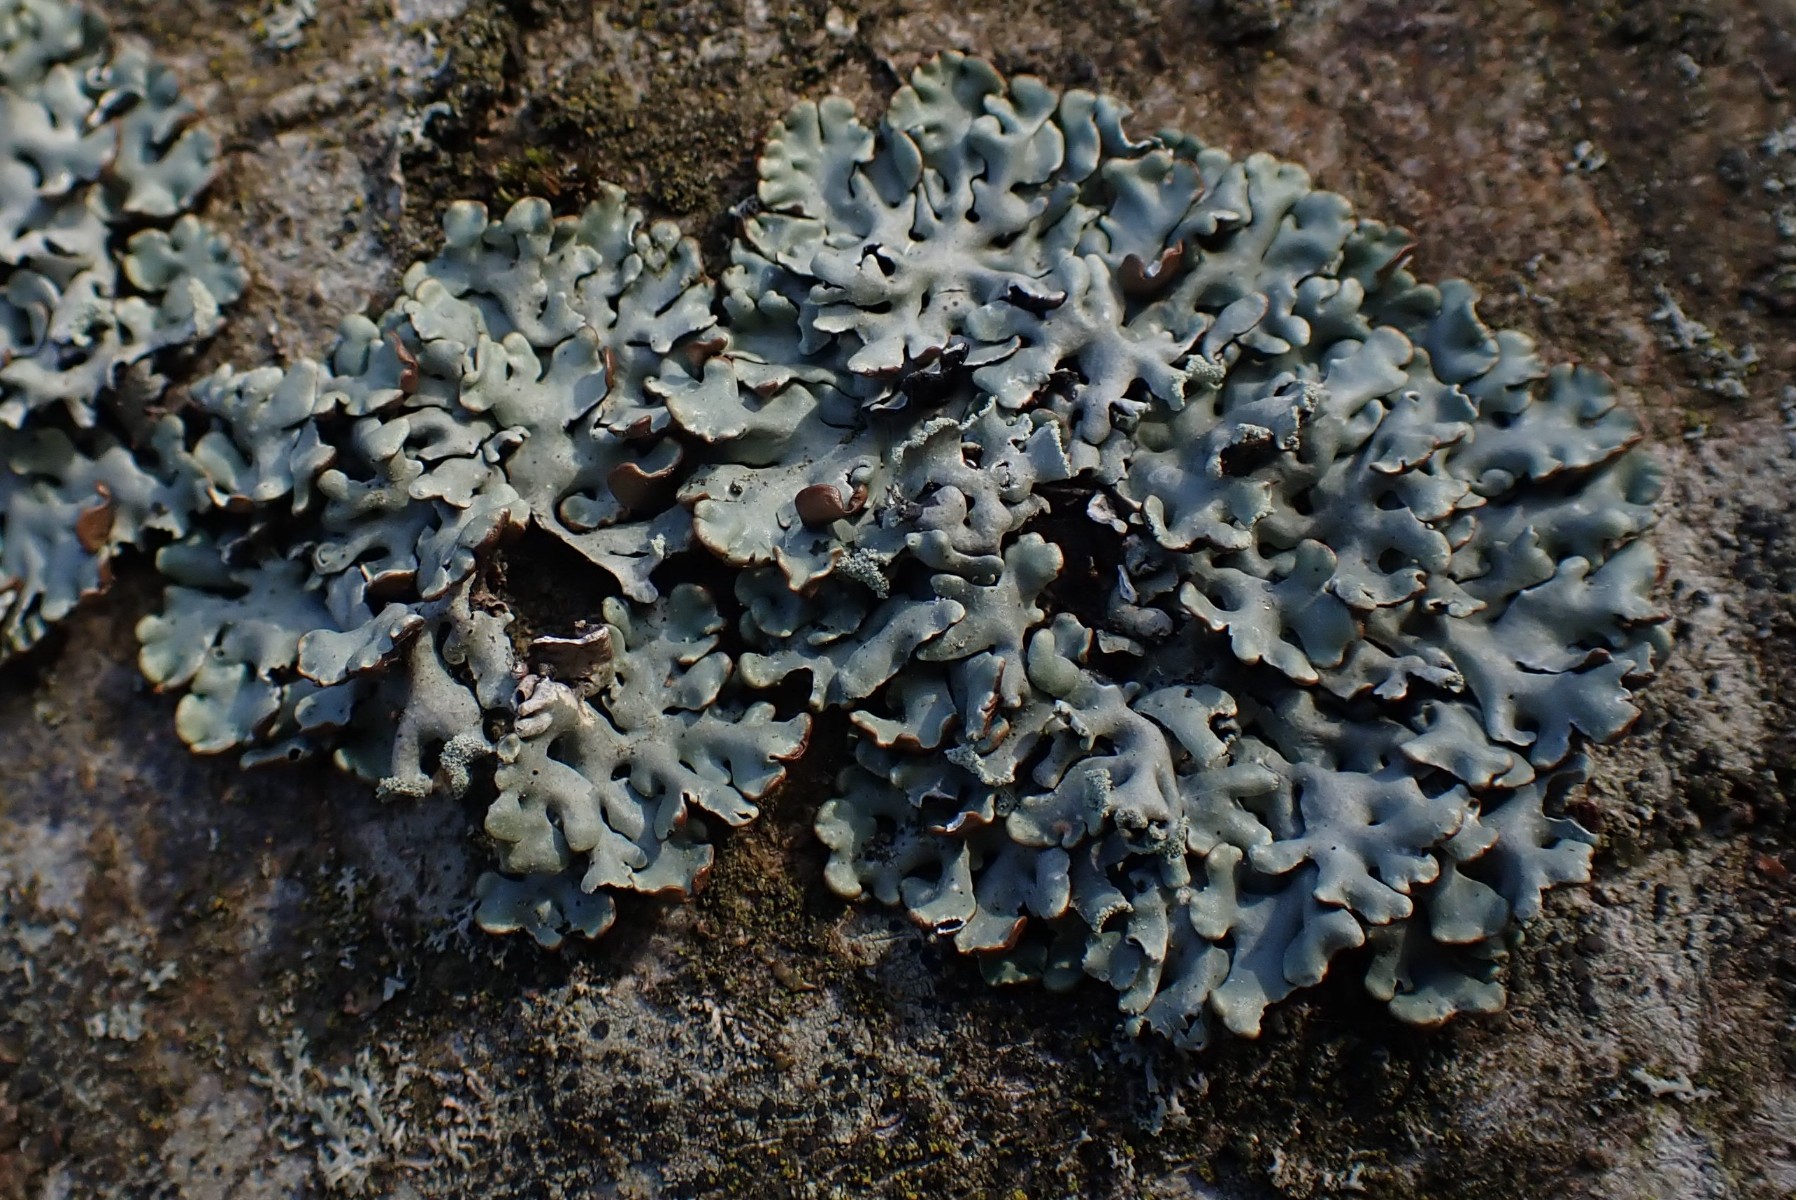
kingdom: Fungi
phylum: Ascomycota
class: Lecanoromycetes
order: Lecanorales
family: Parmeliaceae
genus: Hypogymnia
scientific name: Hypogymnia physodes
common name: almindelig kvistlav
